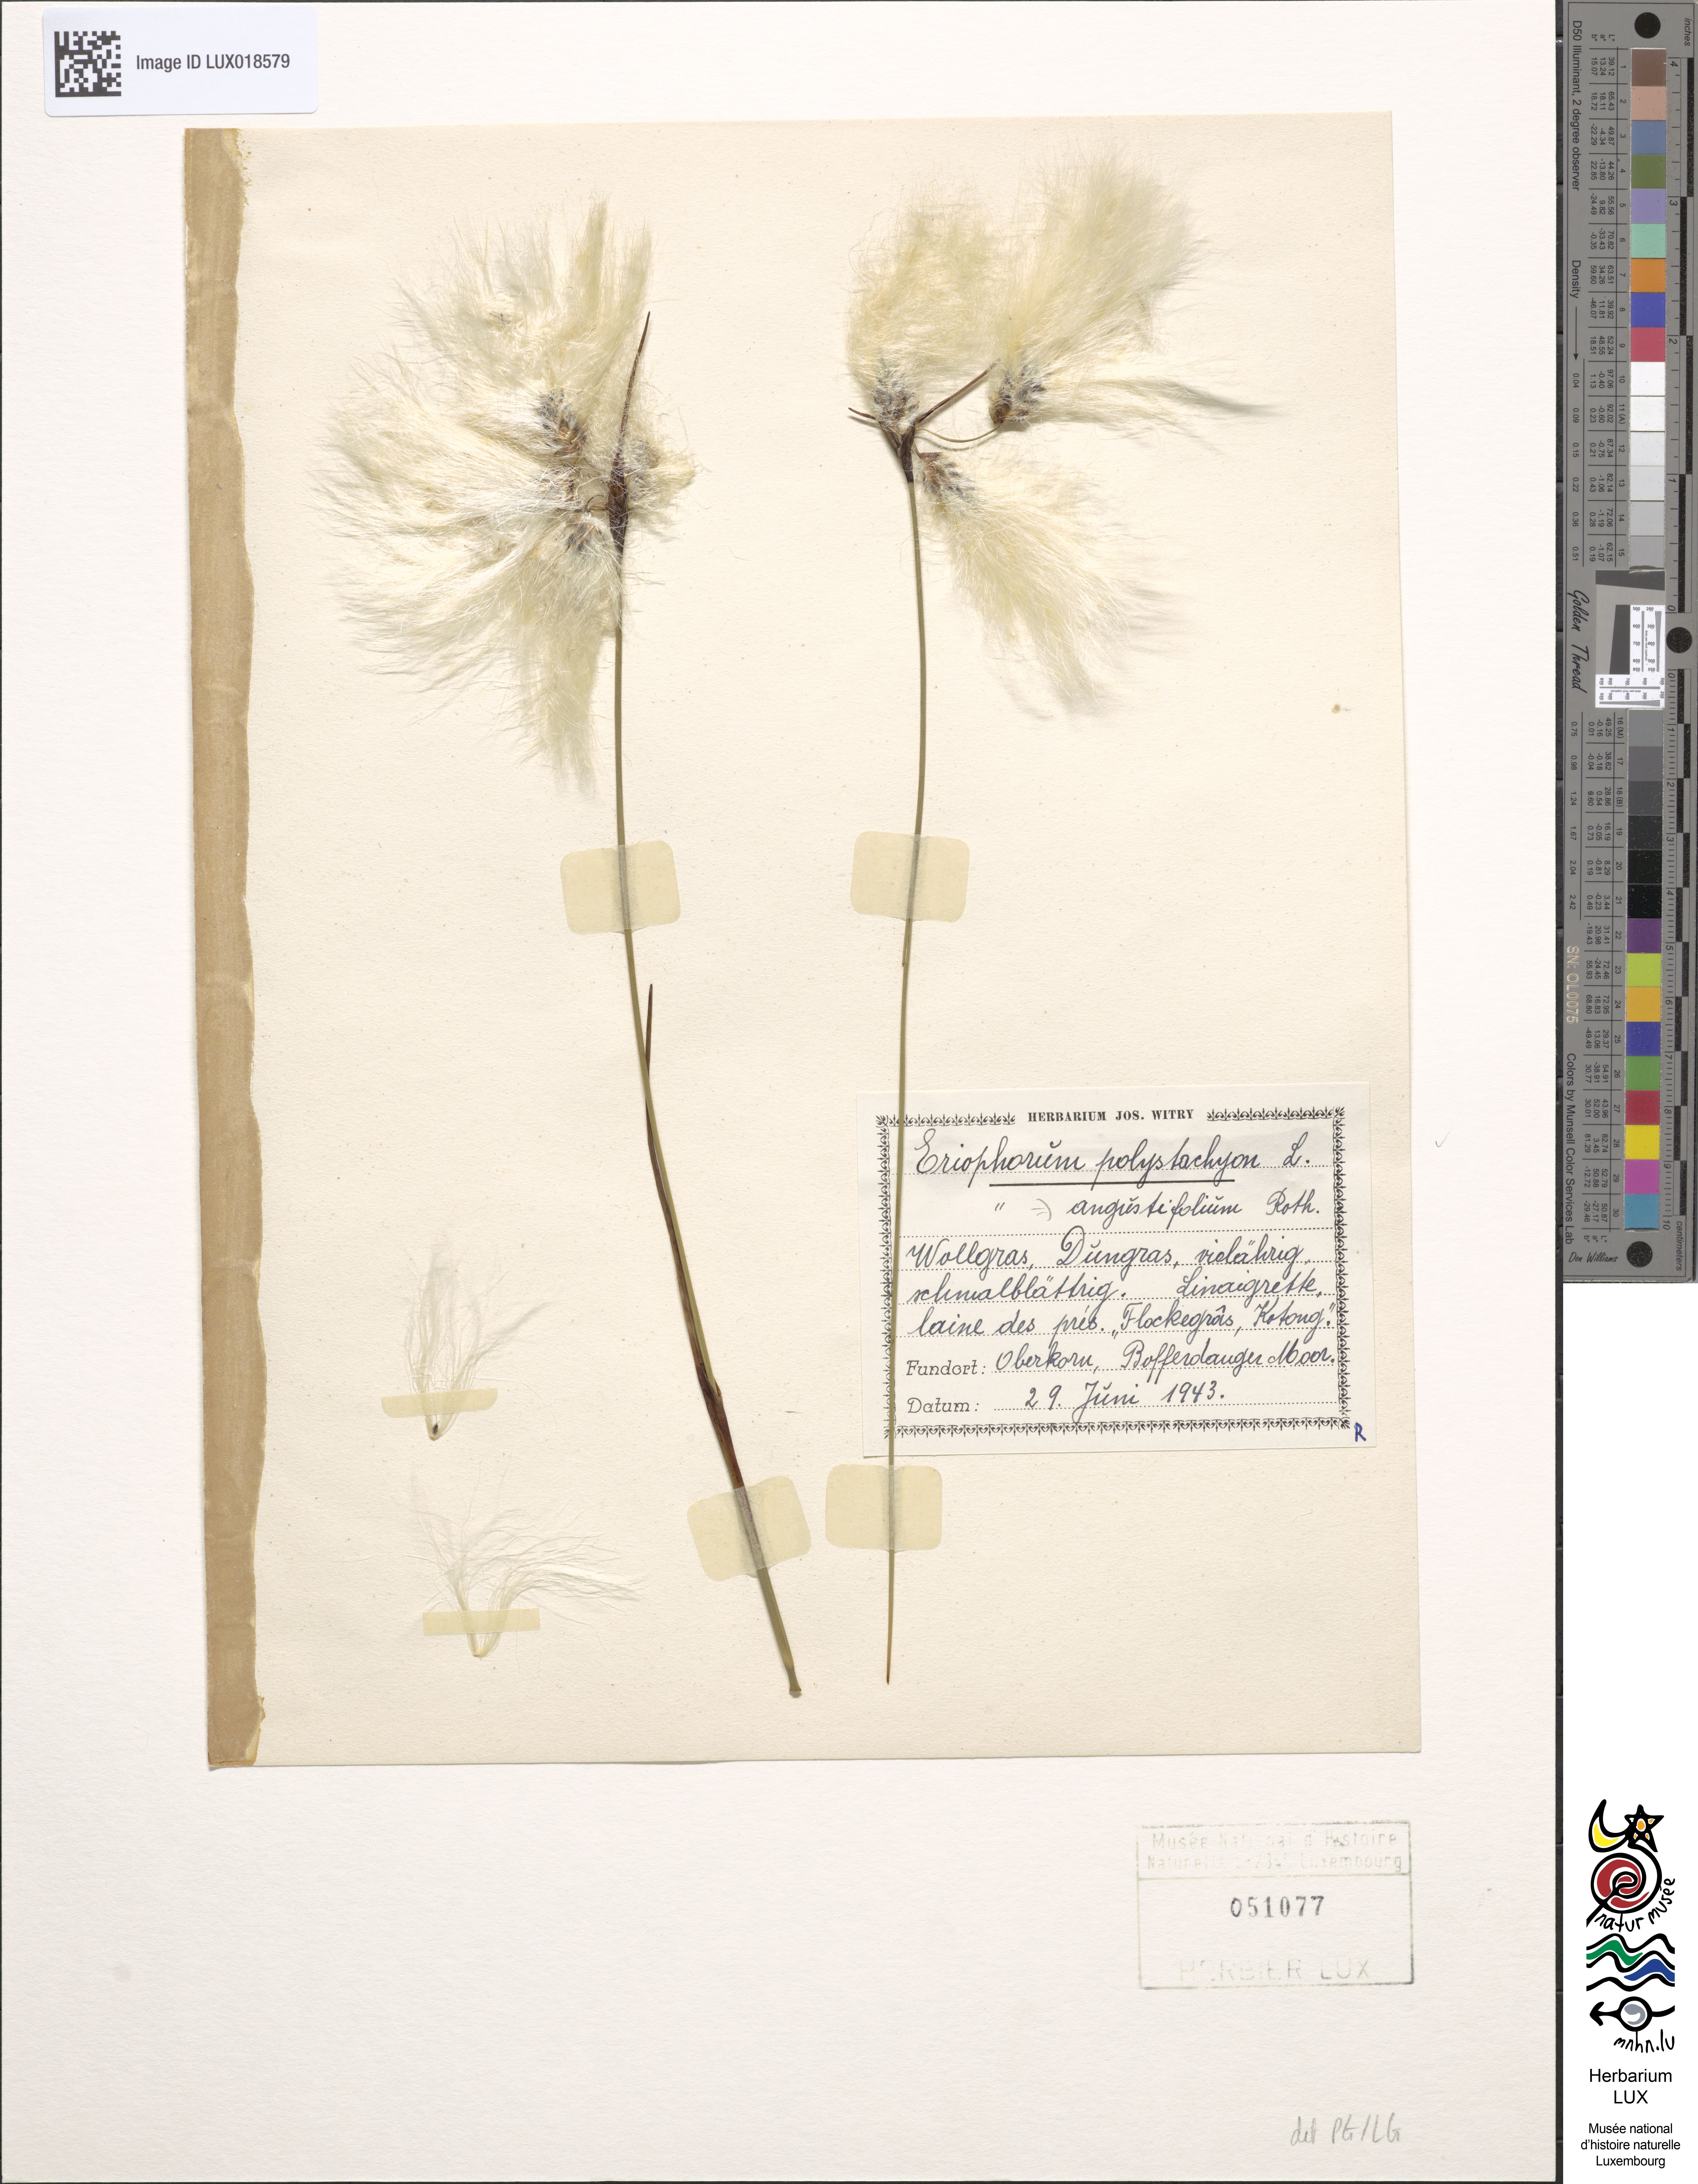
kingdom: Plantae
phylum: Tracheophyta
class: Liliopsida
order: Poales
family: Cyperaceae
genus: Eriophorum
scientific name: Eriophorum angustifolium
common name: Common cottongrass
